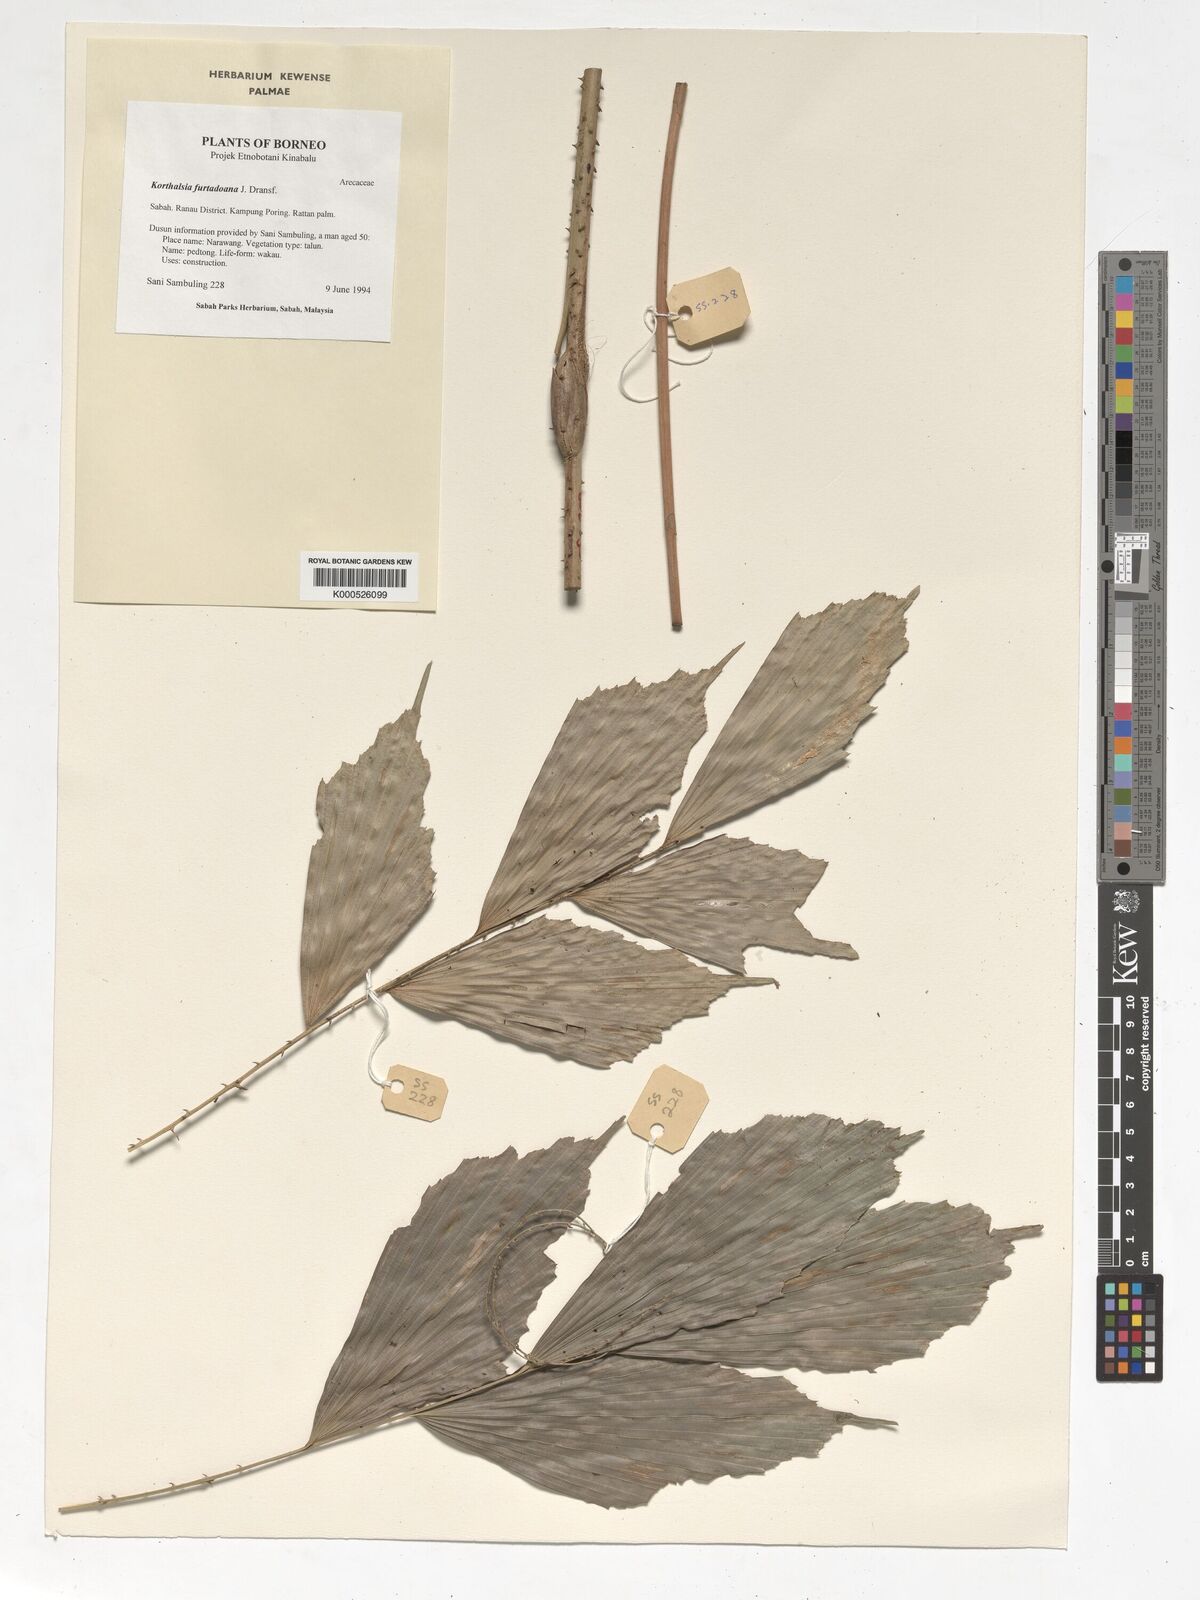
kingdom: Plantae
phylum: Tracheophyta
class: Liliopsida
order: Arecales
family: Arecaceae
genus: Korthalsia
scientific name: Korthalsia furtadoana
